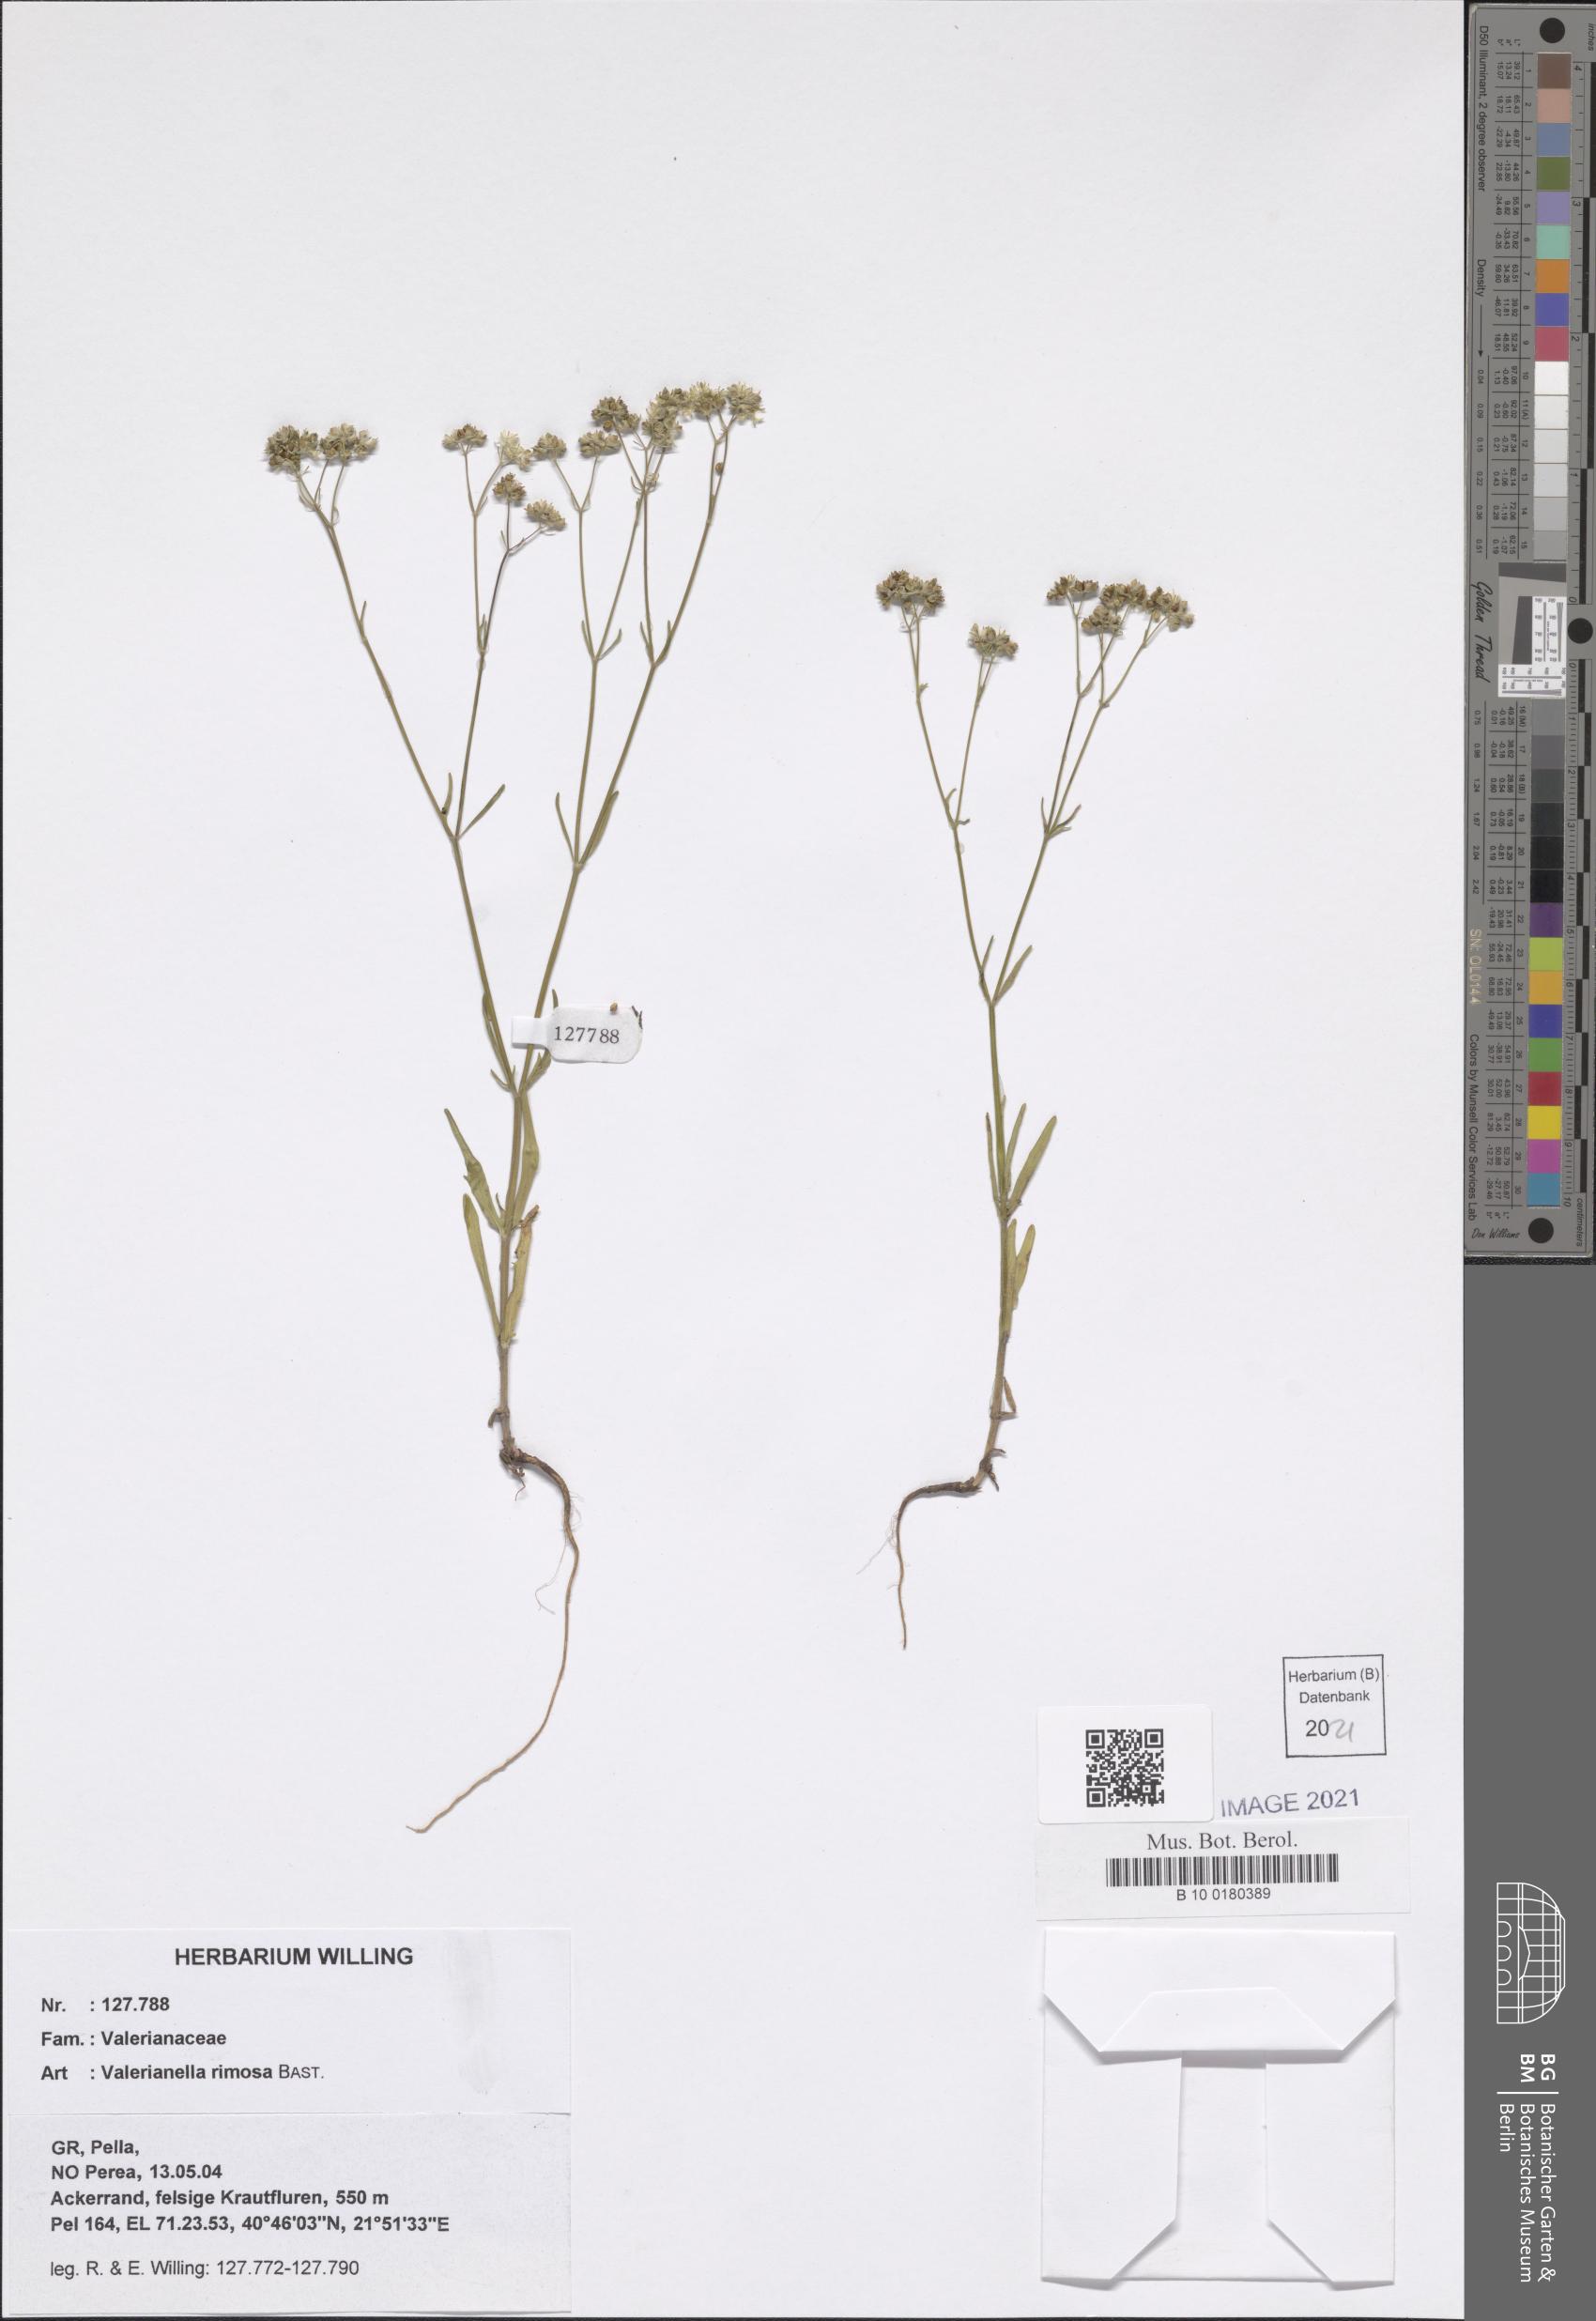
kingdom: Plantae
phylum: Tracheophyta
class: Magnoliopsida
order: Dipsacales
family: Caprifoliaceae
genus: Valerianella
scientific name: Valerianella rimosa
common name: Broad-fruited cornsalad
